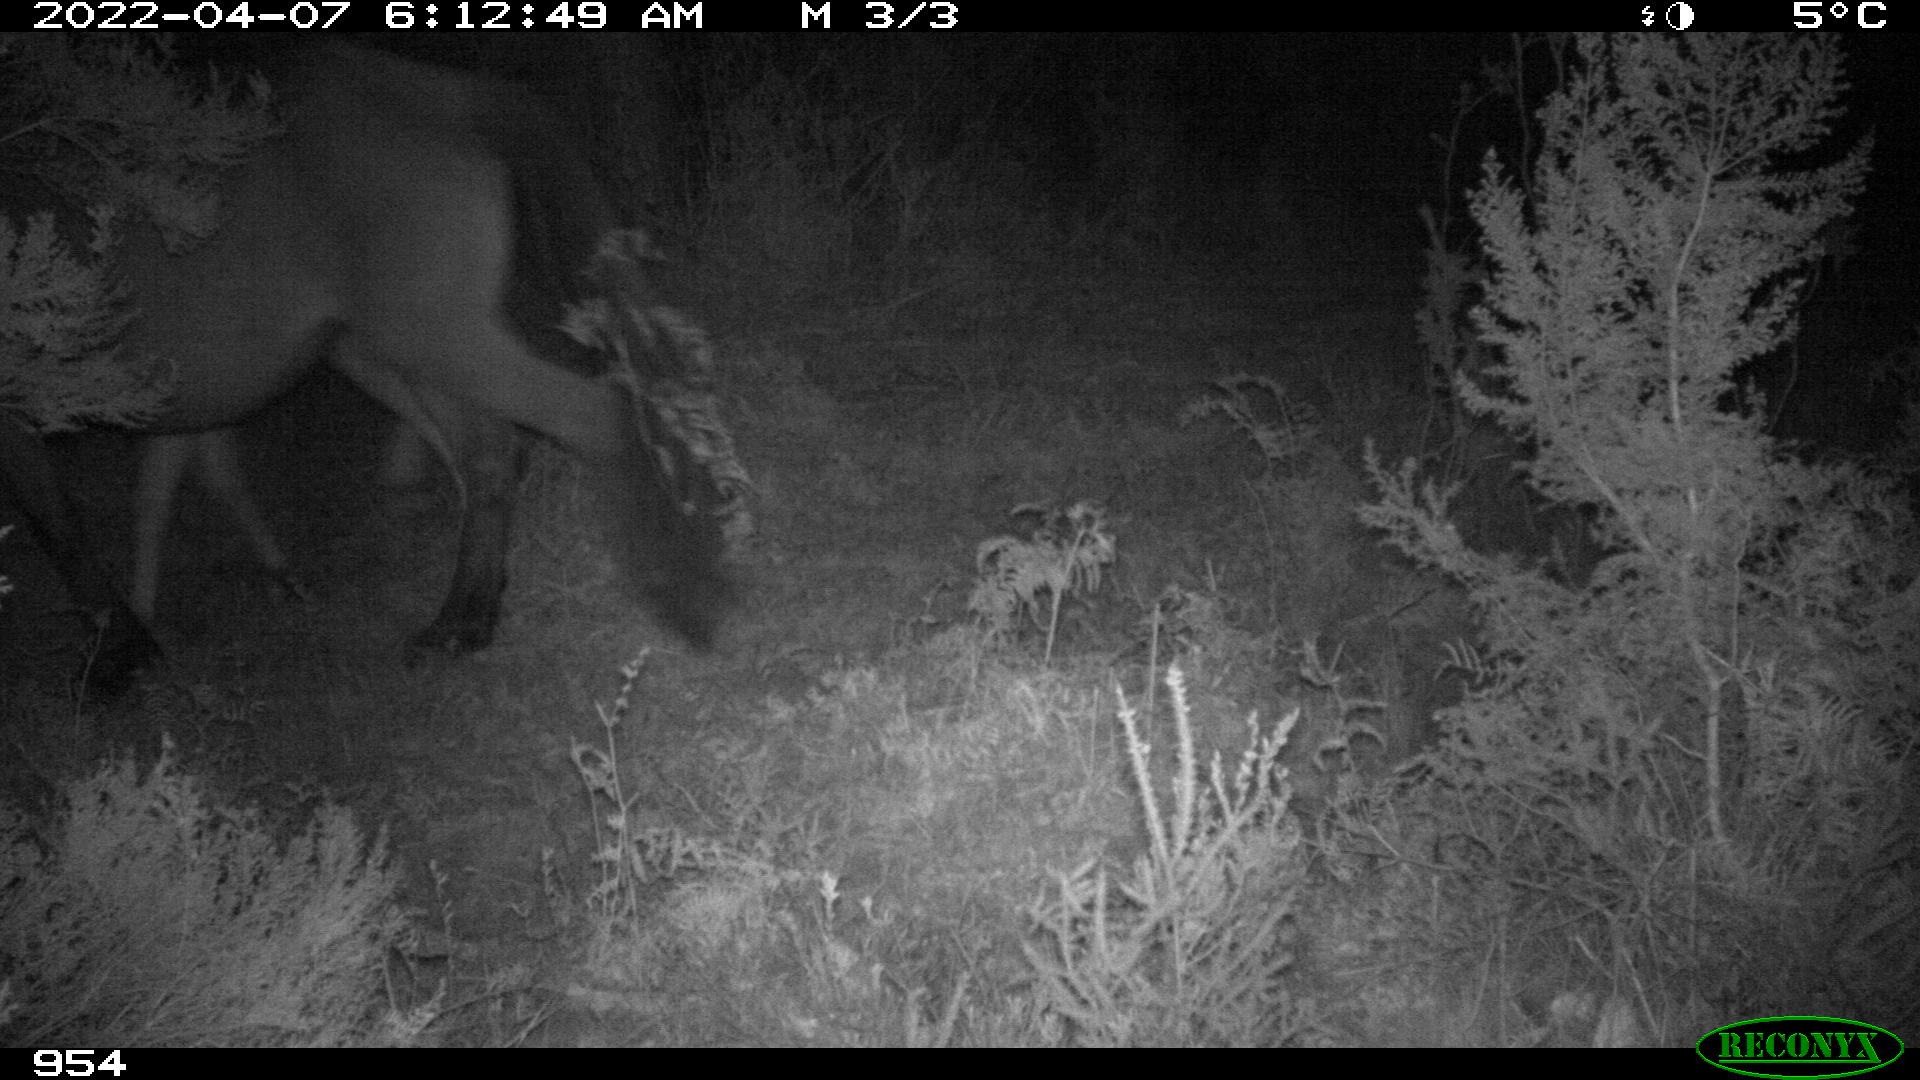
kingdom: Animalia
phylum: Chordata
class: Mammalia
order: Perissodactyla
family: Equidae
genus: Equus
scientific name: Equus caballus
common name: Horse
